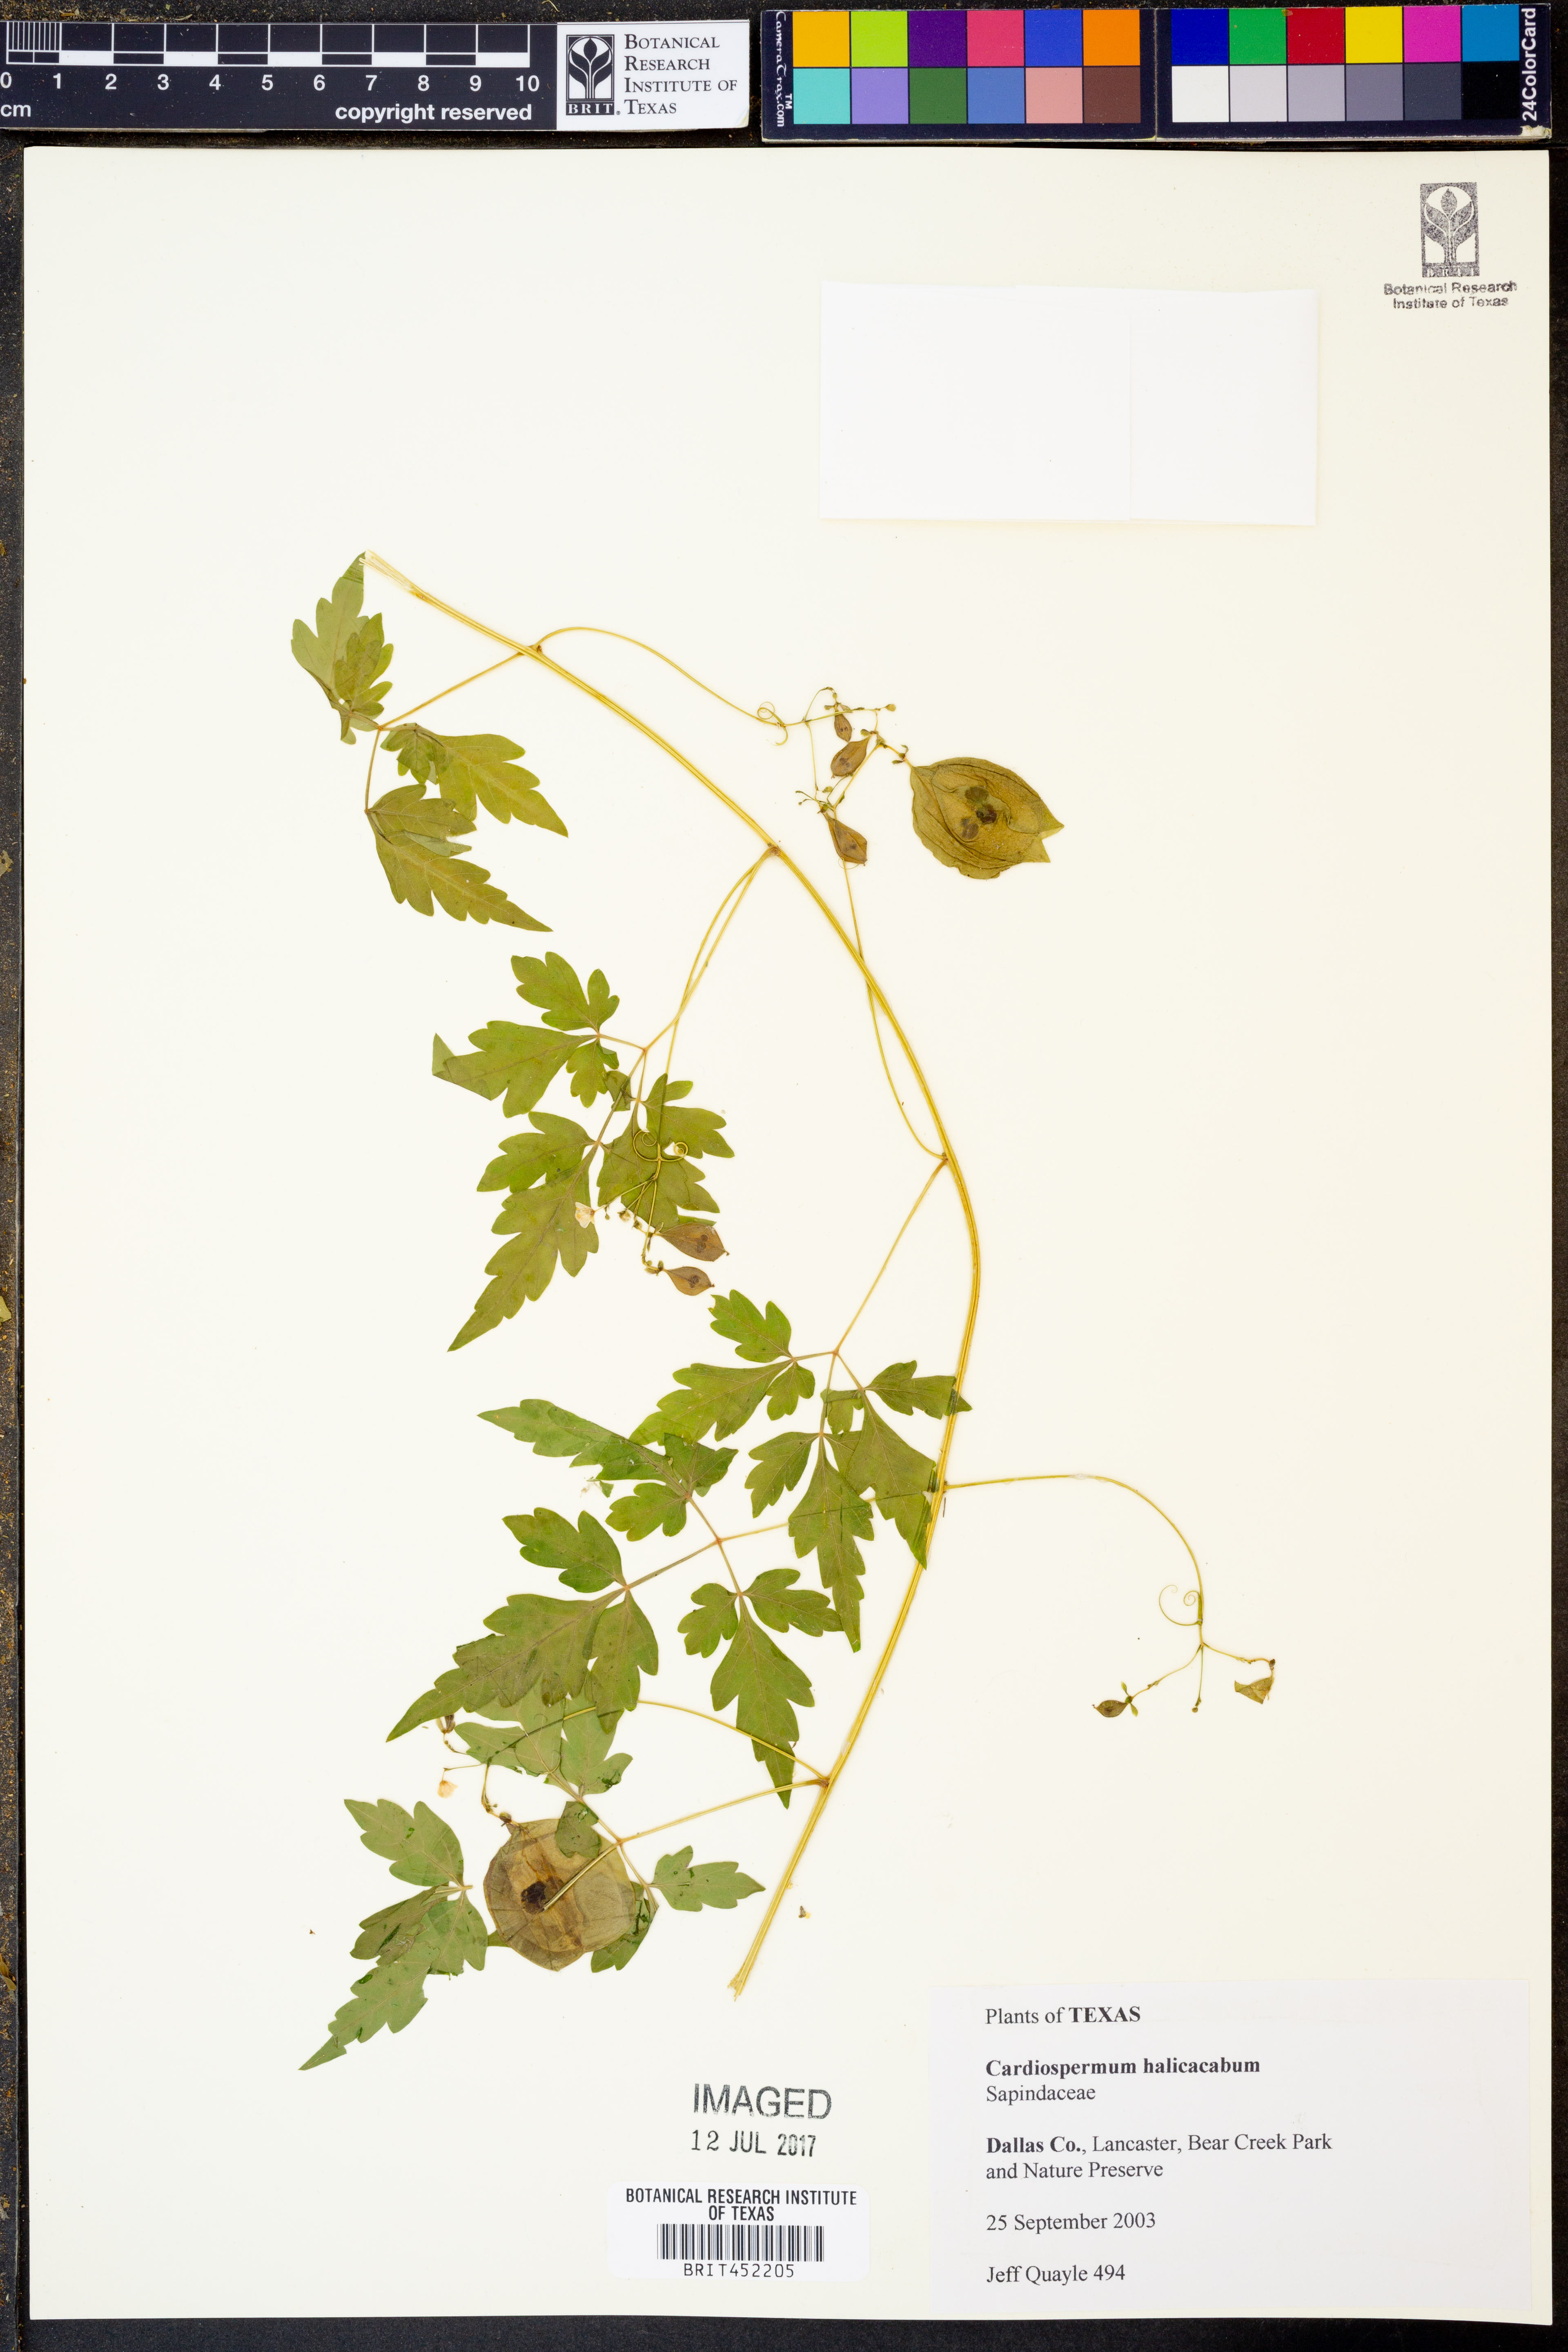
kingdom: Plantae
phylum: Tracheophyta
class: Magnoliopsida
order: Sapindales
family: Sapindaceae
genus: Cardiospermum
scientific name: Cardiospermum halicacabum
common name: Balloon vine
